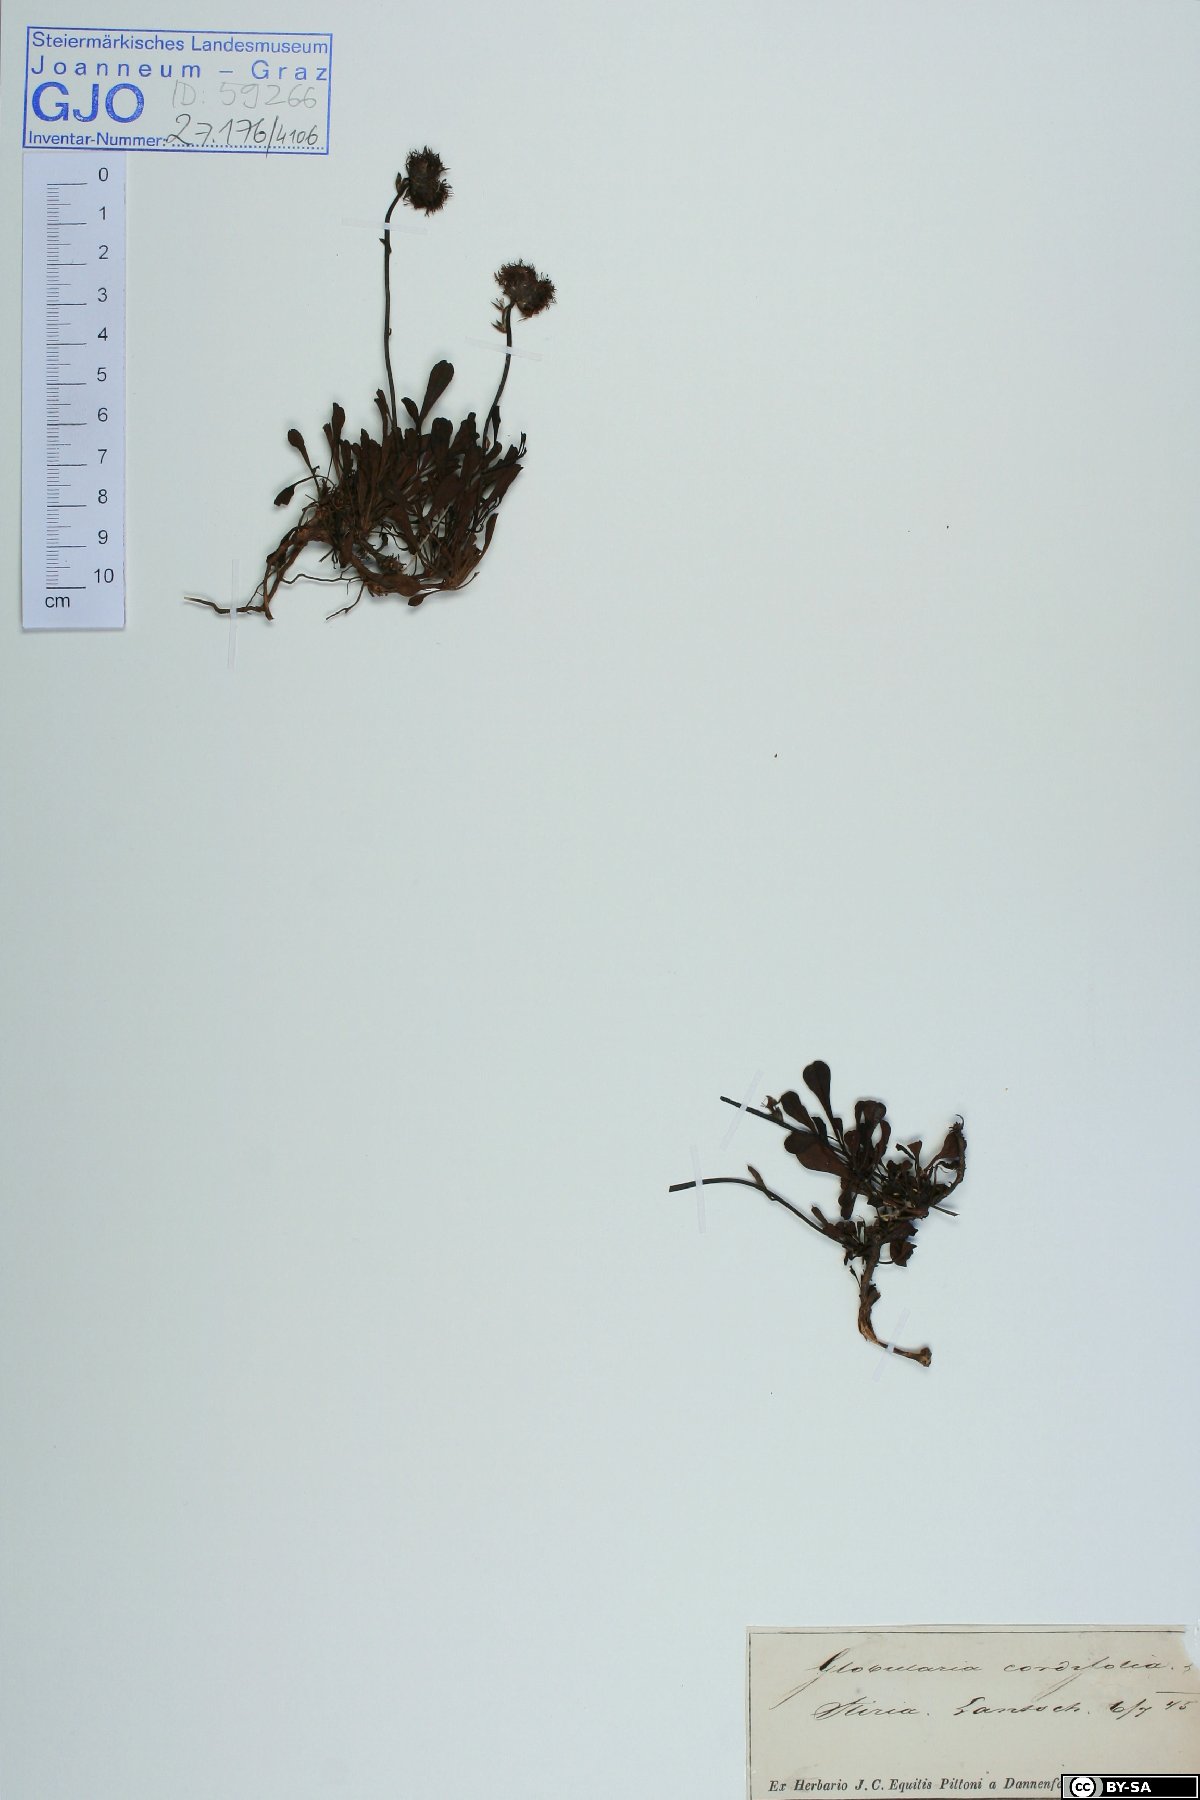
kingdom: Plantae
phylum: Tracheophyta
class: Magnoliopsida
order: Lamiales
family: Plantaginaceae
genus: Globularia
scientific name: Globularia cordifolia
